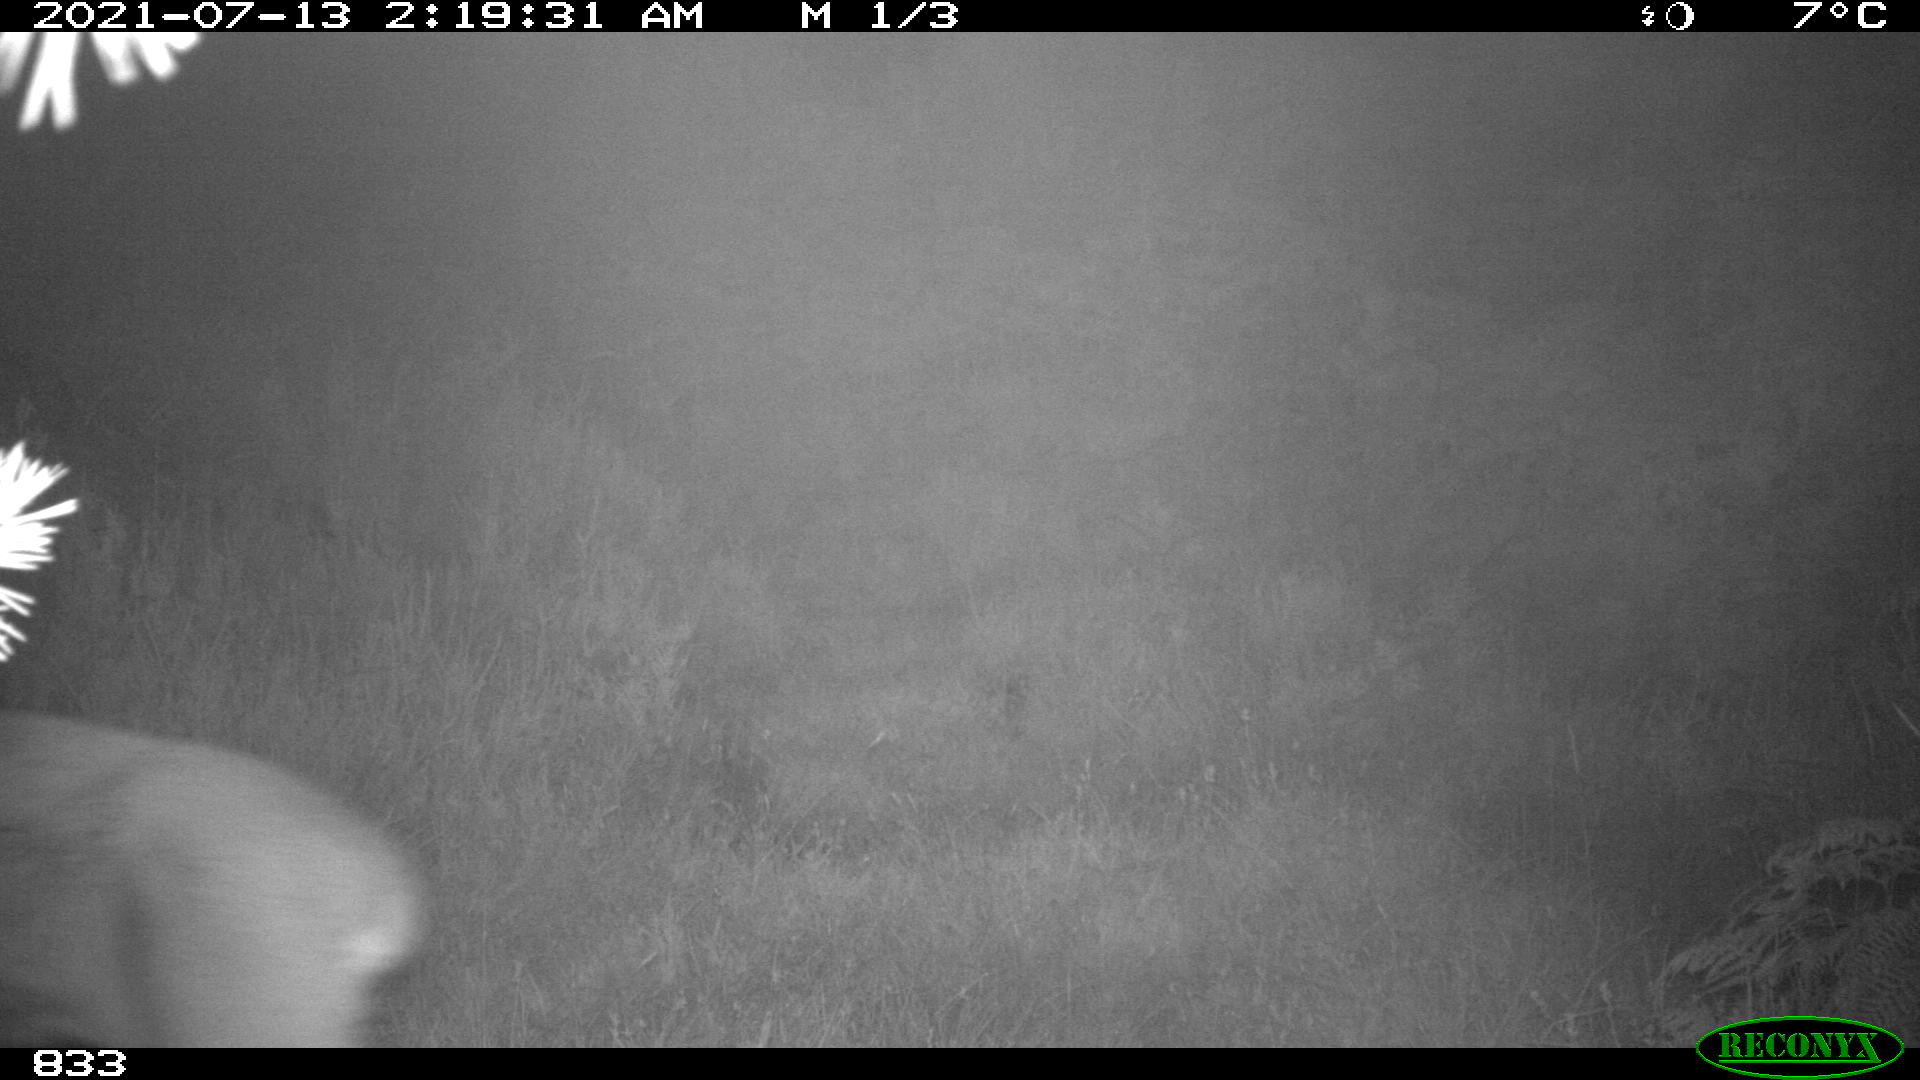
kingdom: Animalia
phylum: Chordata
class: Mammalia
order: Artiodactyla
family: Cervidae
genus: Capreolus
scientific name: Capreolus capreolus
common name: Western roe deer
